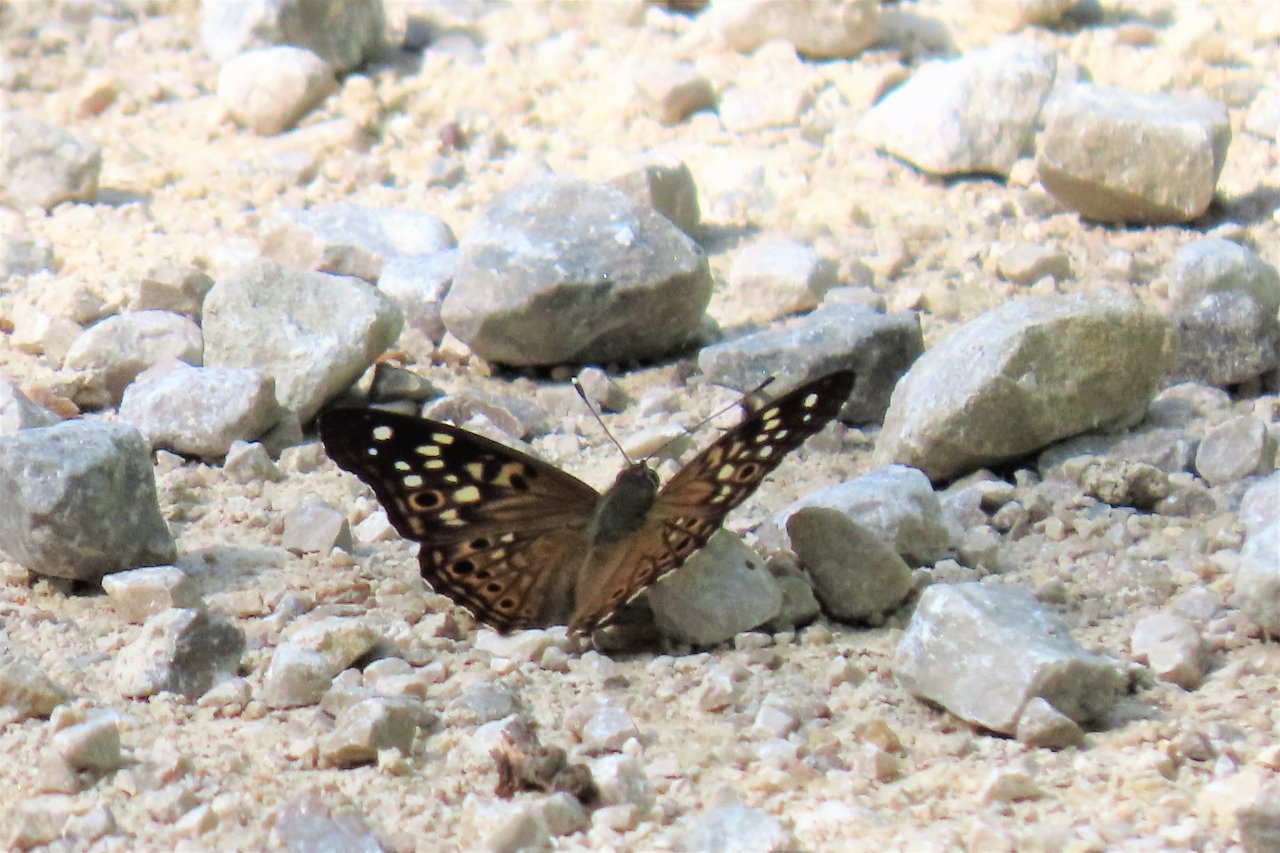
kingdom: Animalia
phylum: Arthropoda
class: Insecta
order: Lepidoptera
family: Nymphalidae
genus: Asterocampa
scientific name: Asterocampa celtis
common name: Hackberry Emperor
